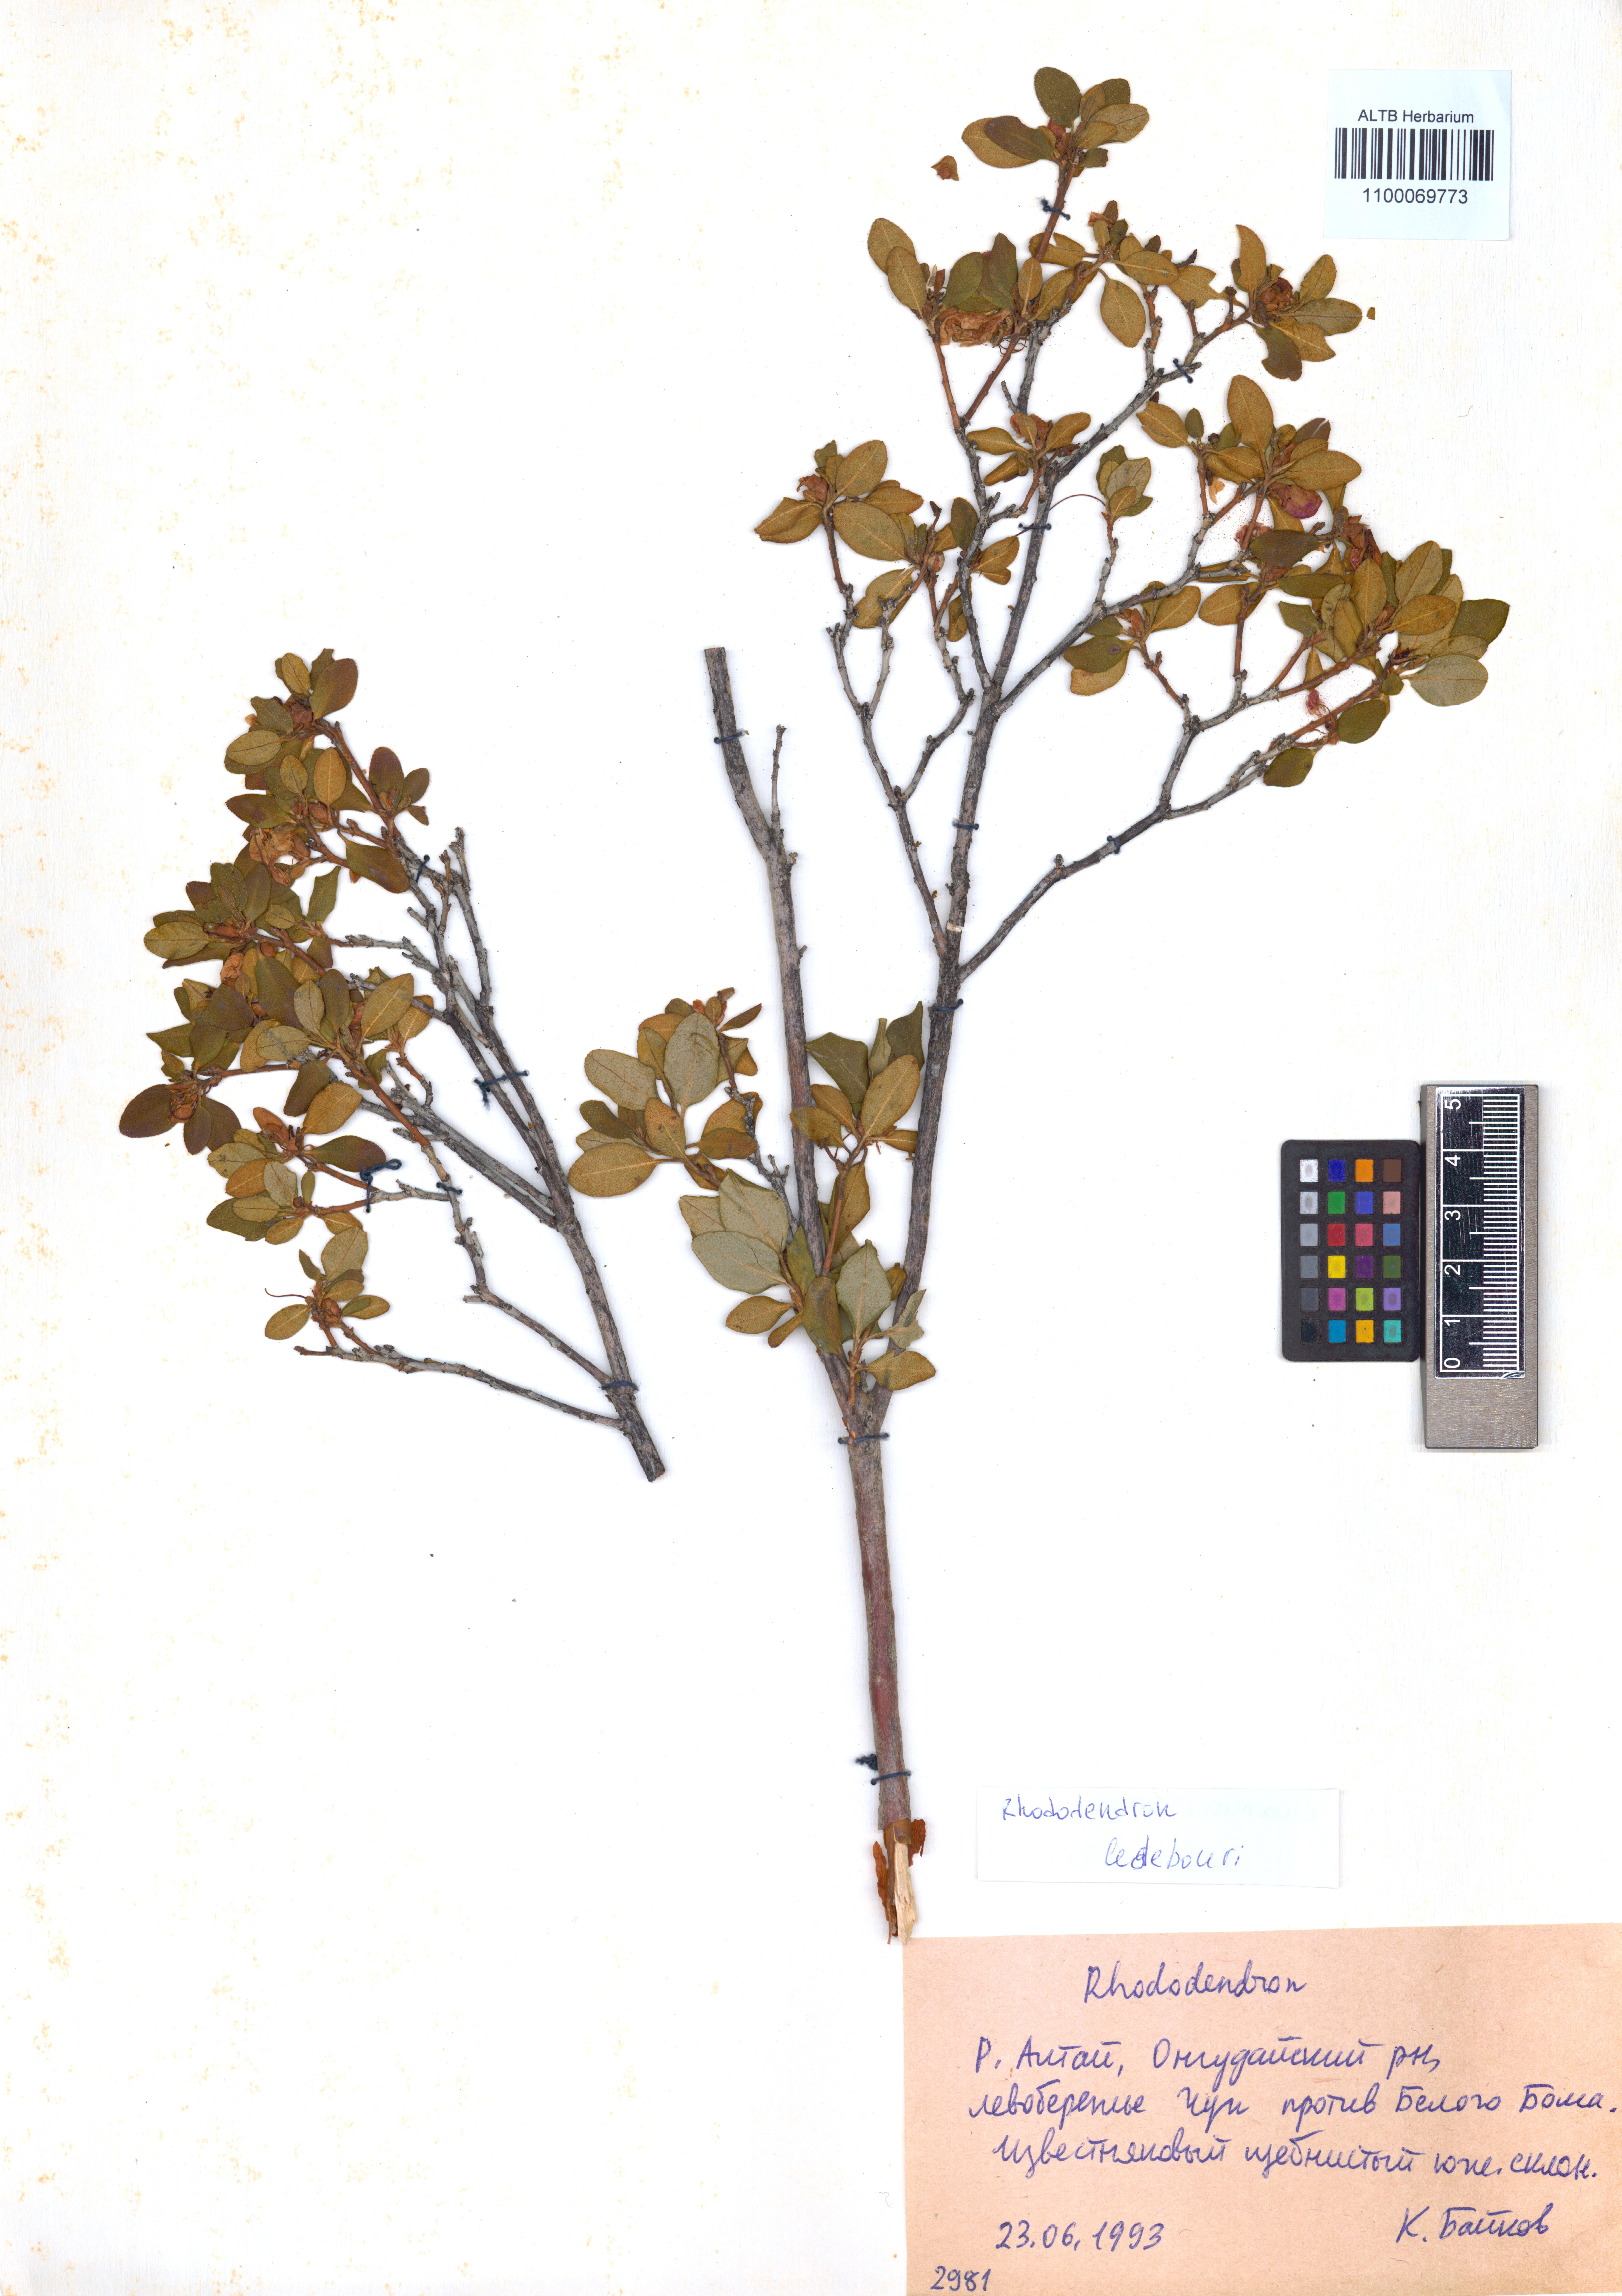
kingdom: Plantae
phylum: Tracheophyta
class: Magnoliopsida
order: Ericales
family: Ericaceae
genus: Rhododendron
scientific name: Rhododendron dauricum
